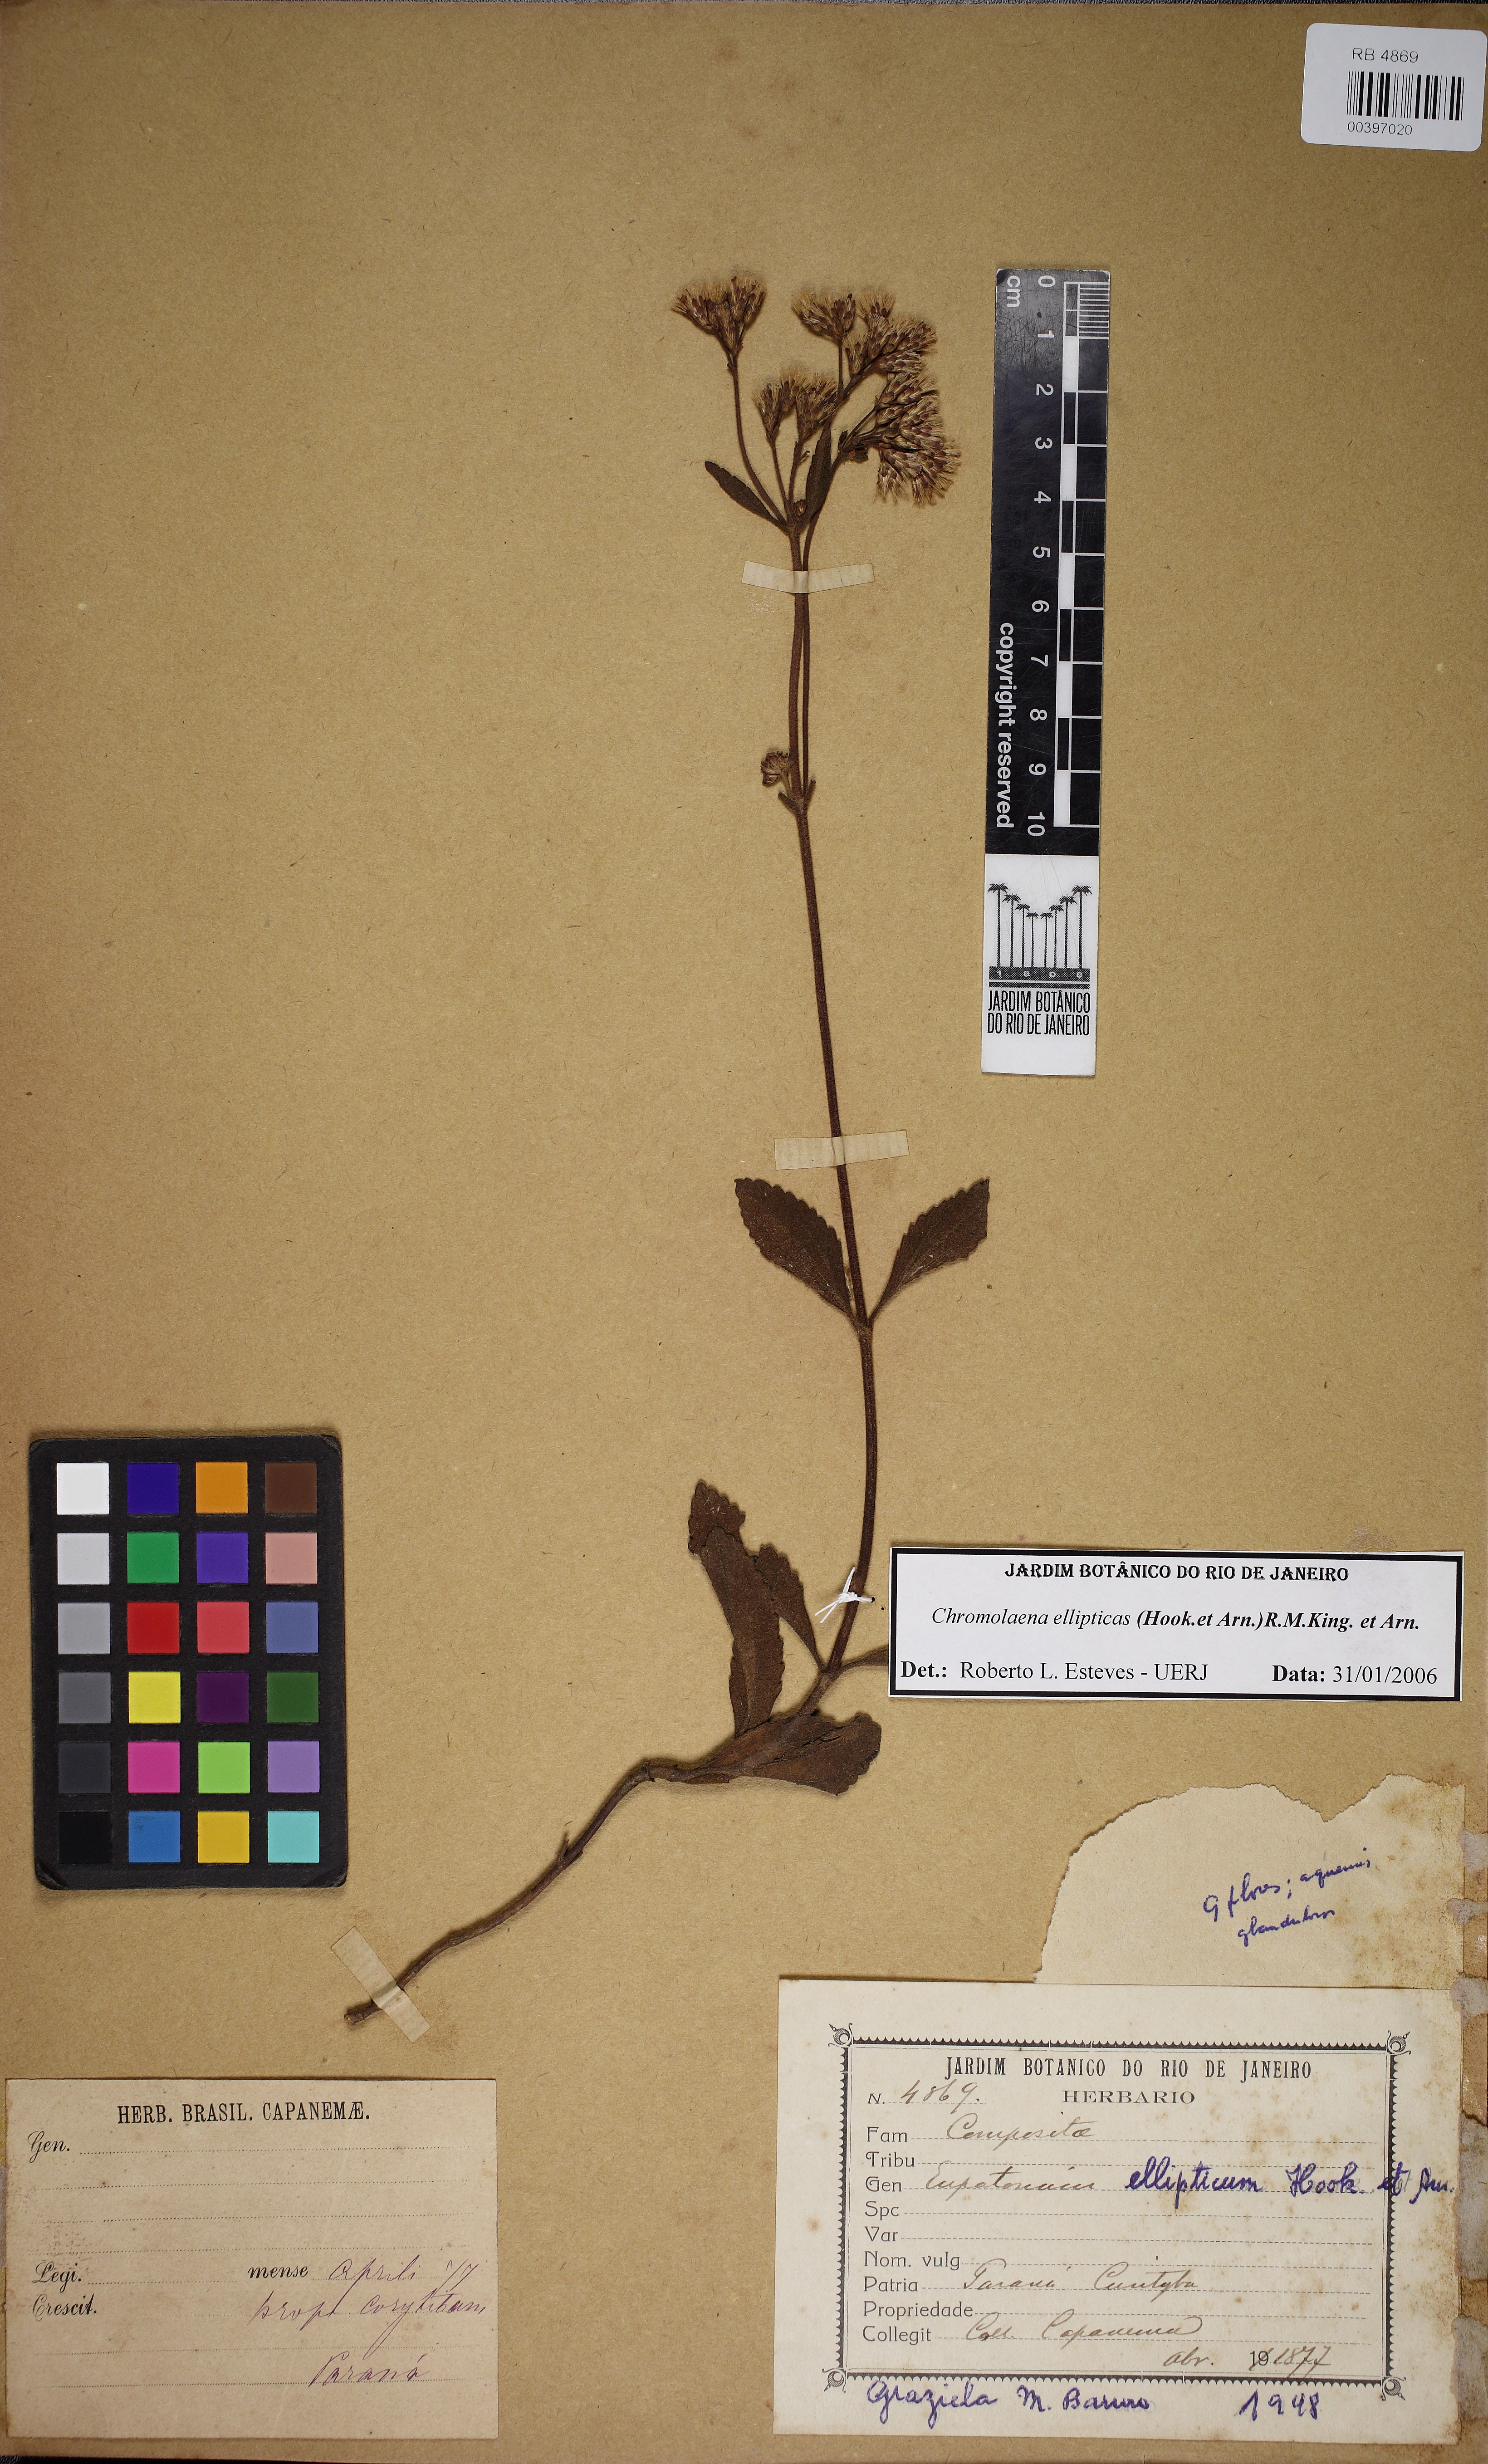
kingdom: Plantae
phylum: Tracheophyta
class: Magnoliopsida
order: Asterales
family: Asteraceae
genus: Chromolaena
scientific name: Chromolaena elliptica
